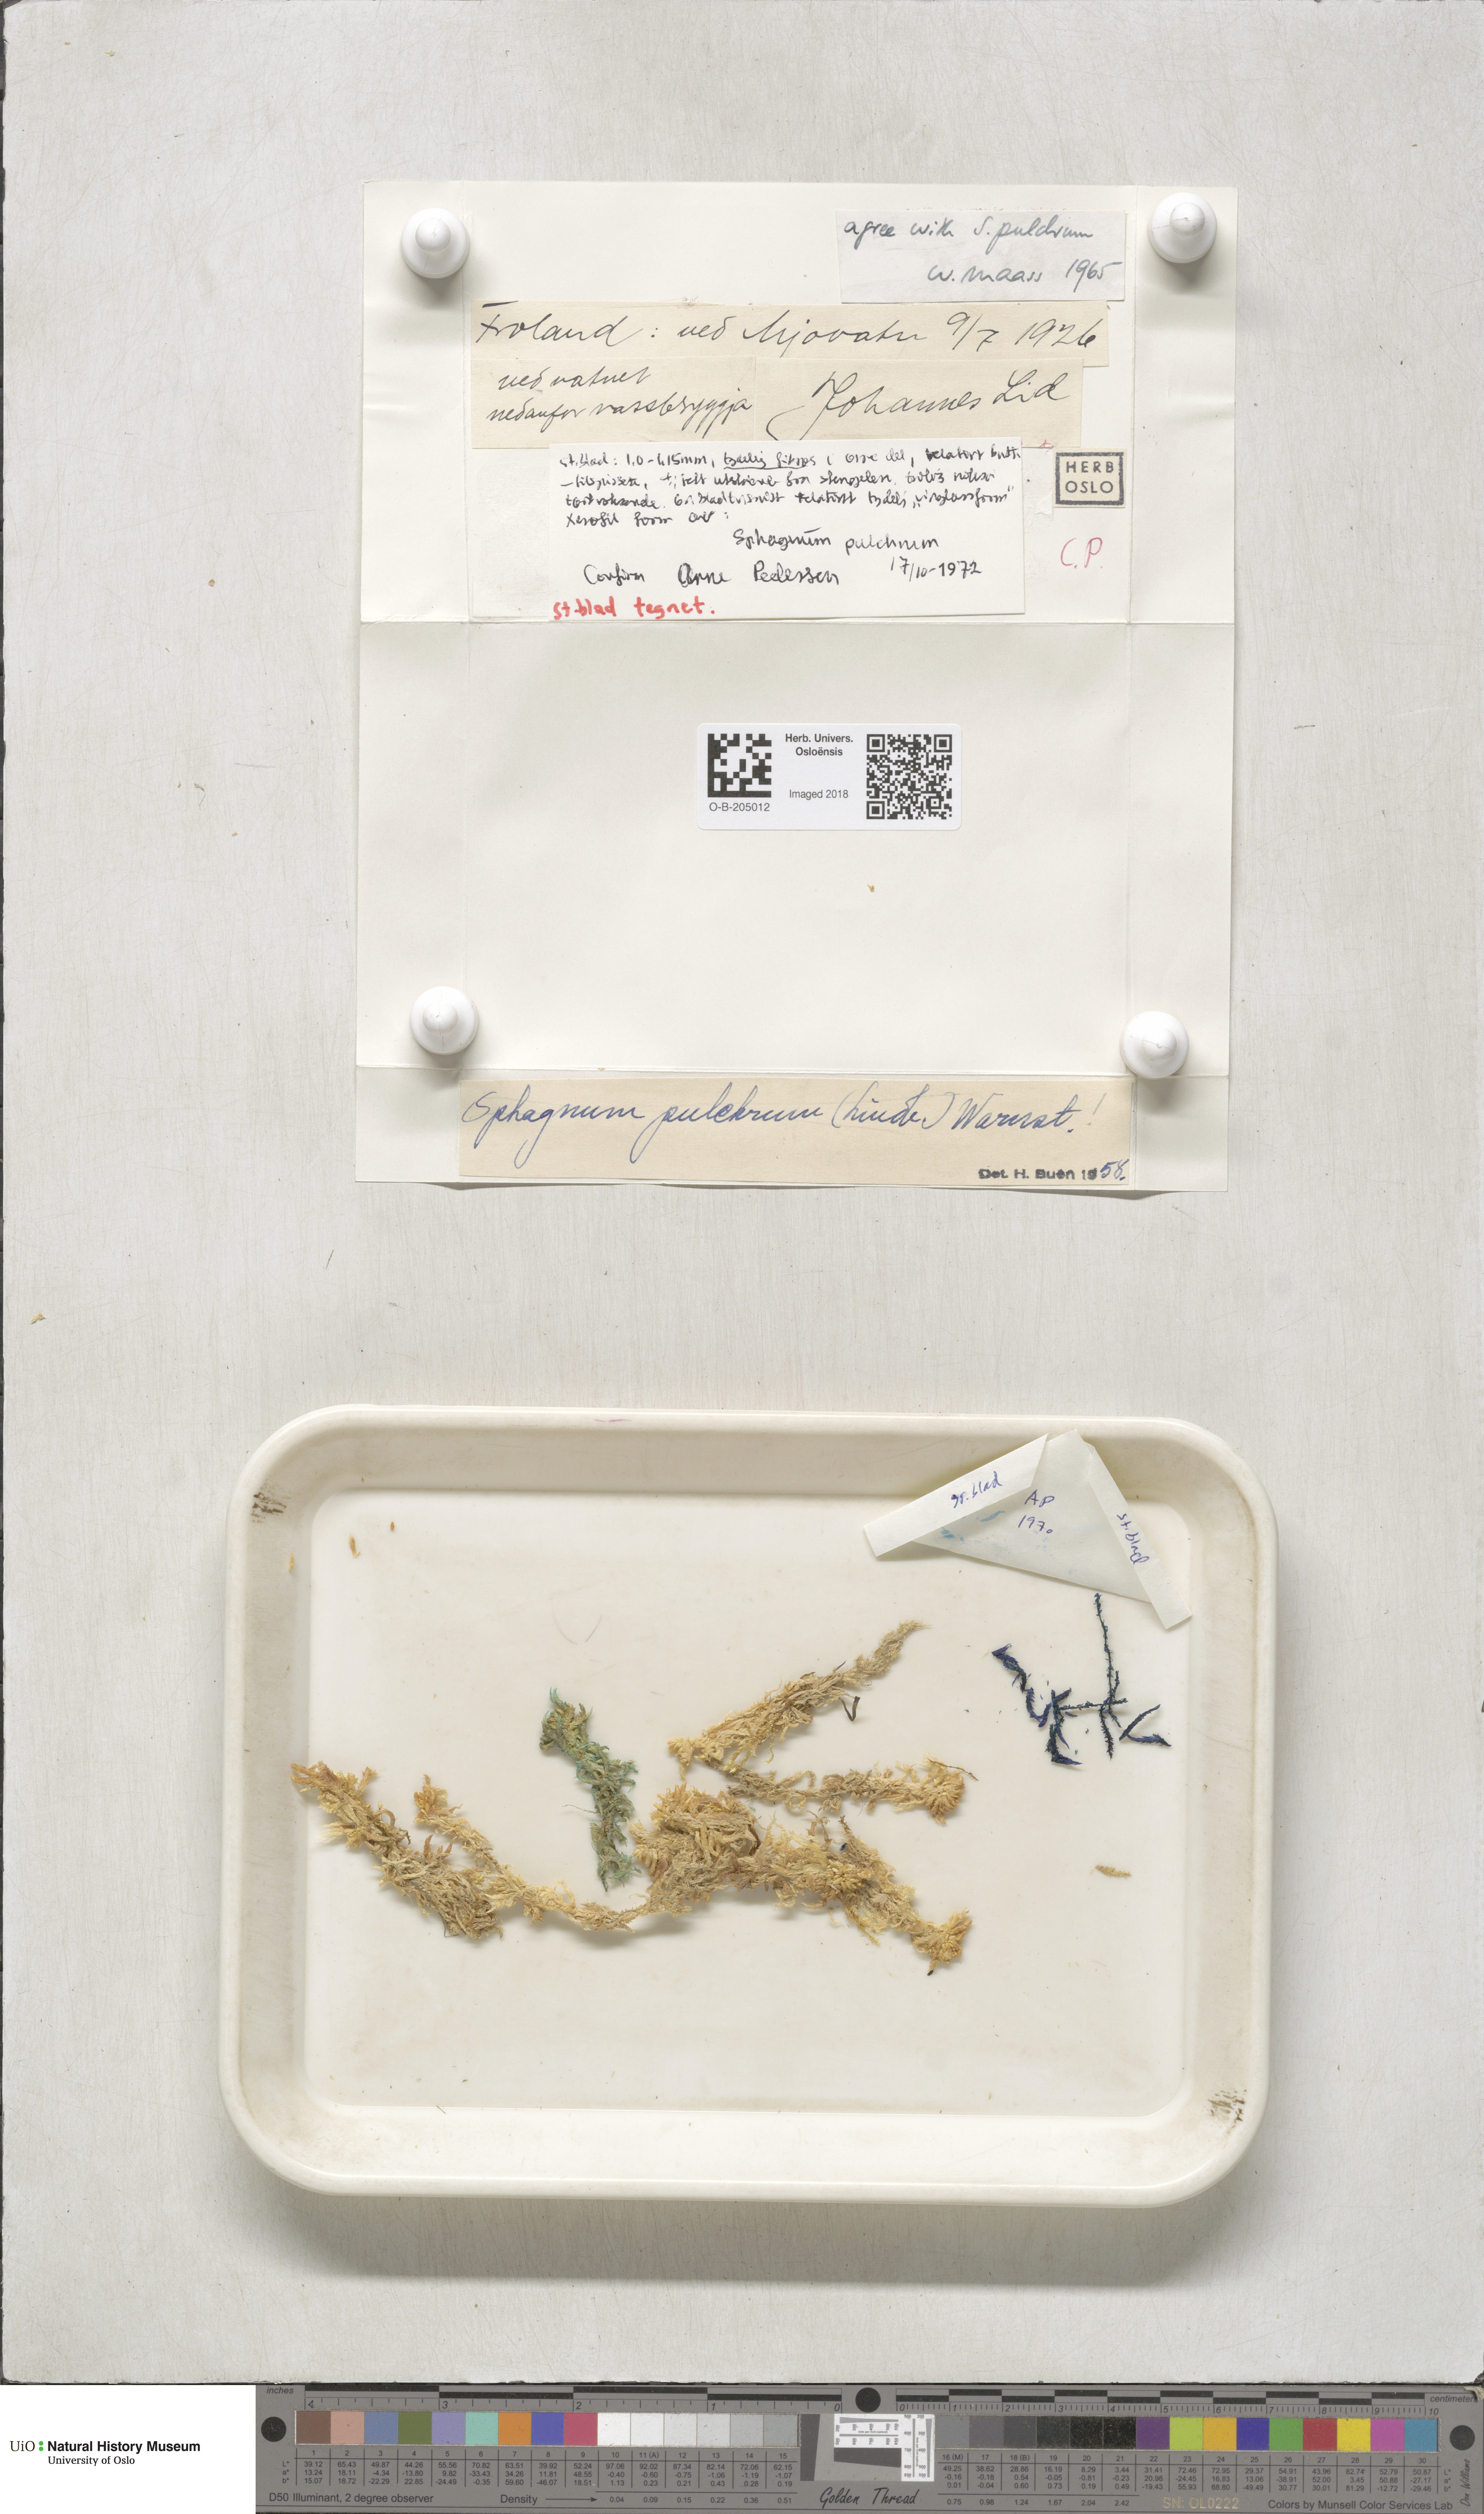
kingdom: Plantae
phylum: Bryophyta
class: Sphagnopsida
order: Sphagnales
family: Sphagnaceae
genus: Sphagnum
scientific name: Sphagnum pulchrum
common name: Beautiful peat moss
